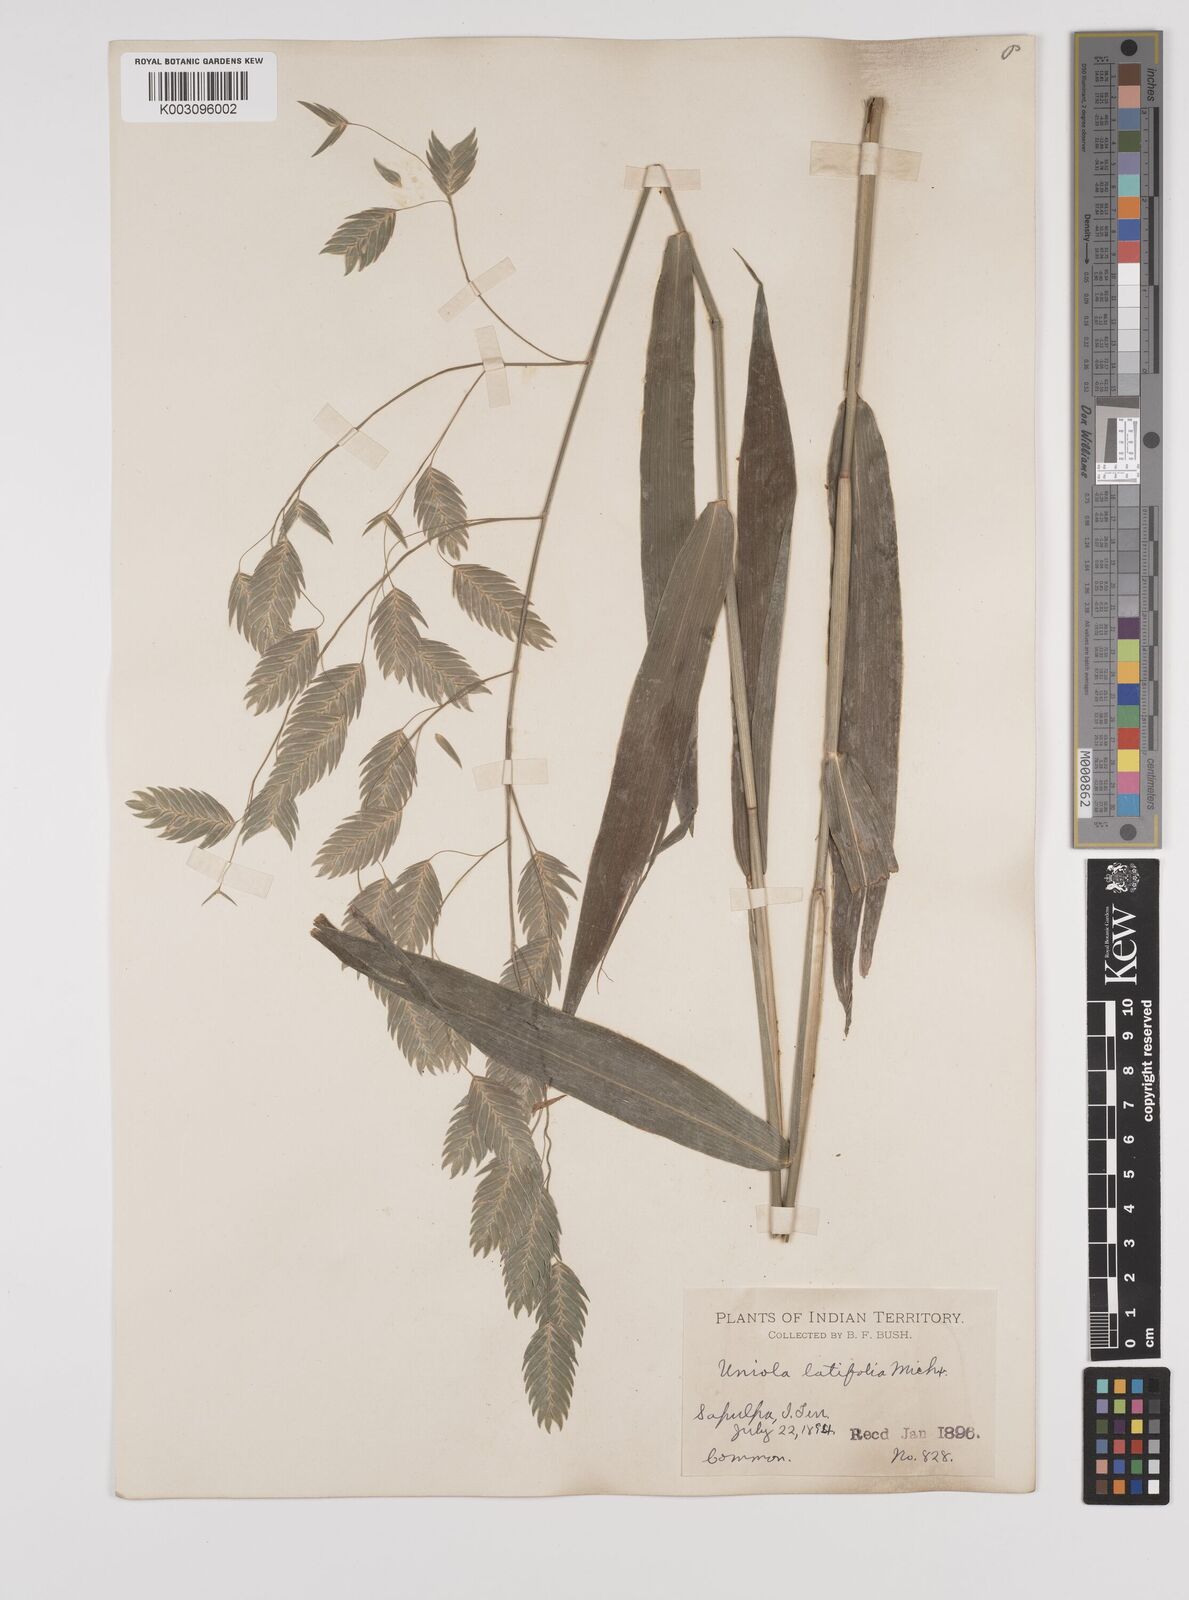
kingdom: Plantae
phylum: Tracheophyta
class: Liliopsida
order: Poales
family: Poaceae
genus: Chasmanthium
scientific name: Chasmanthium latifolium
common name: Broad-leaved chasmanthium
